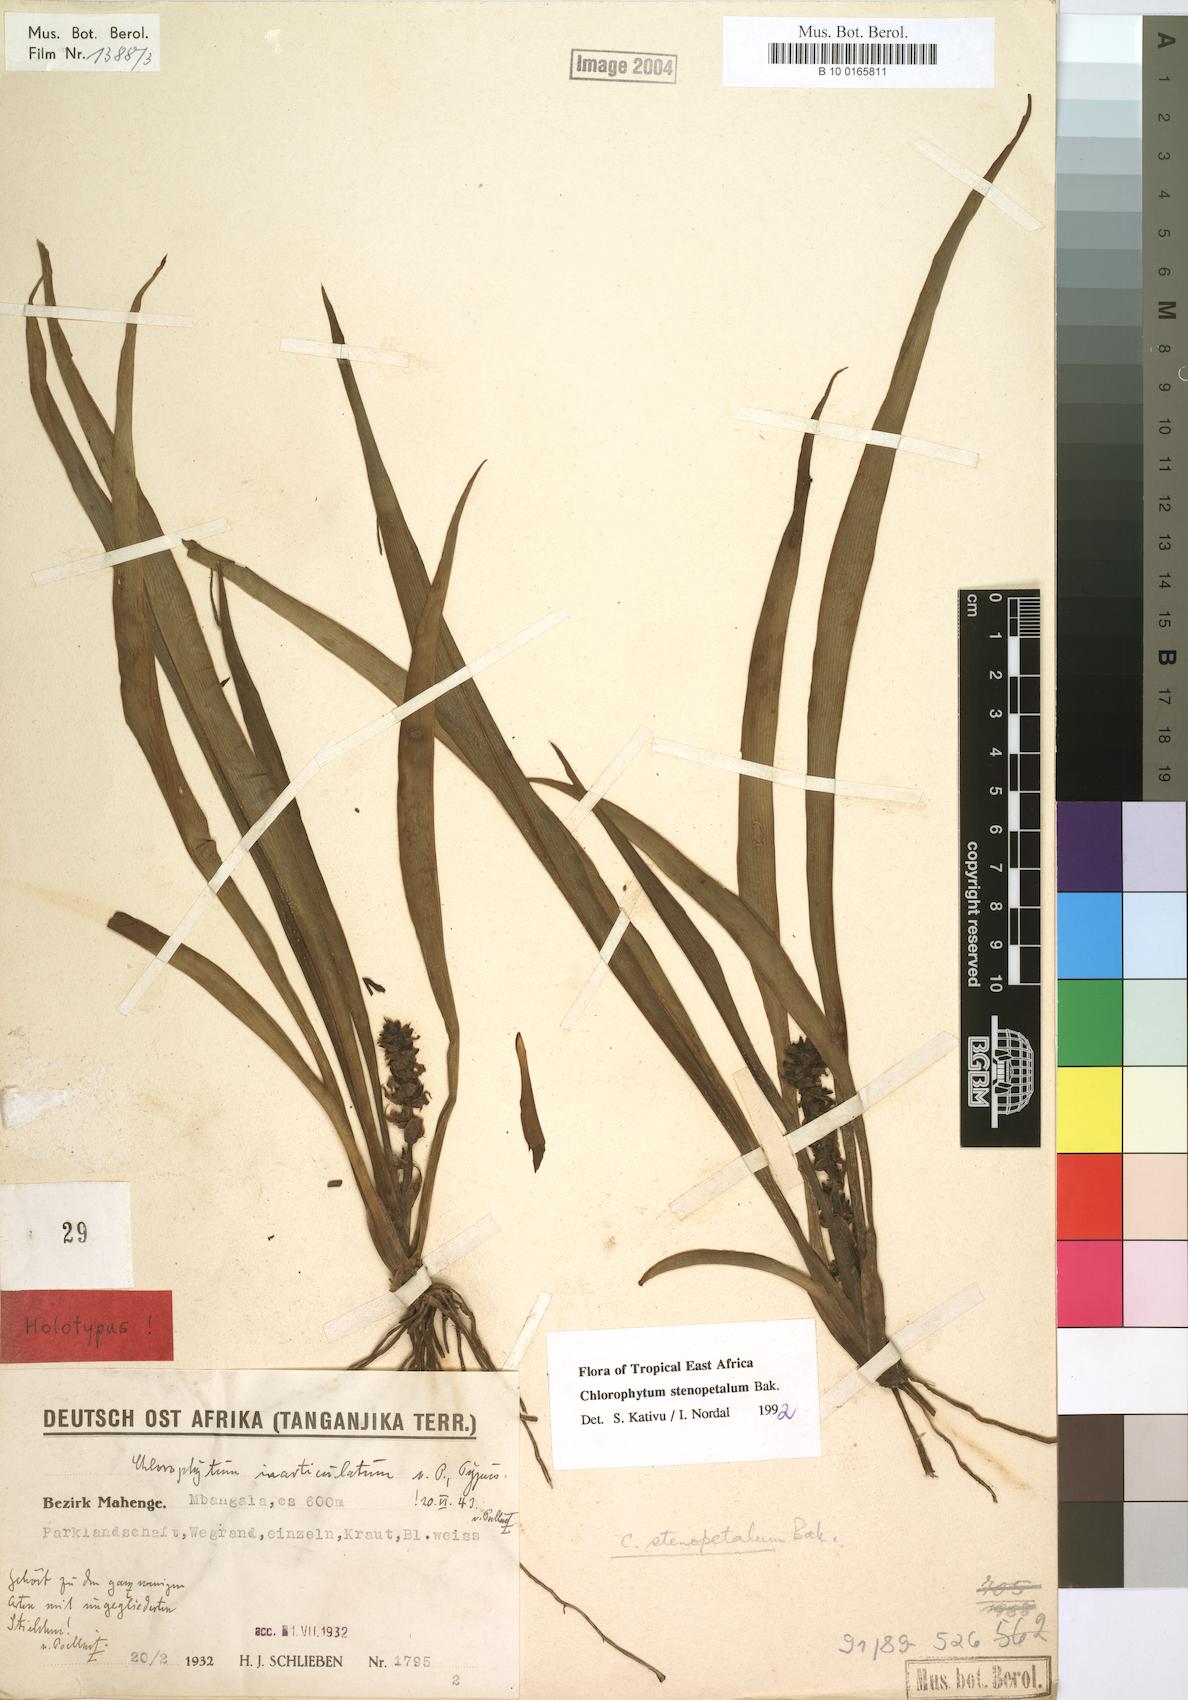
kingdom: Plantae
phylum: Tracheophyta
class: Liliopsida
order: Asparagales
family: Asparagaceae
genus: Chlorophytum
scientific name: Chlorophytum stenopetalum
